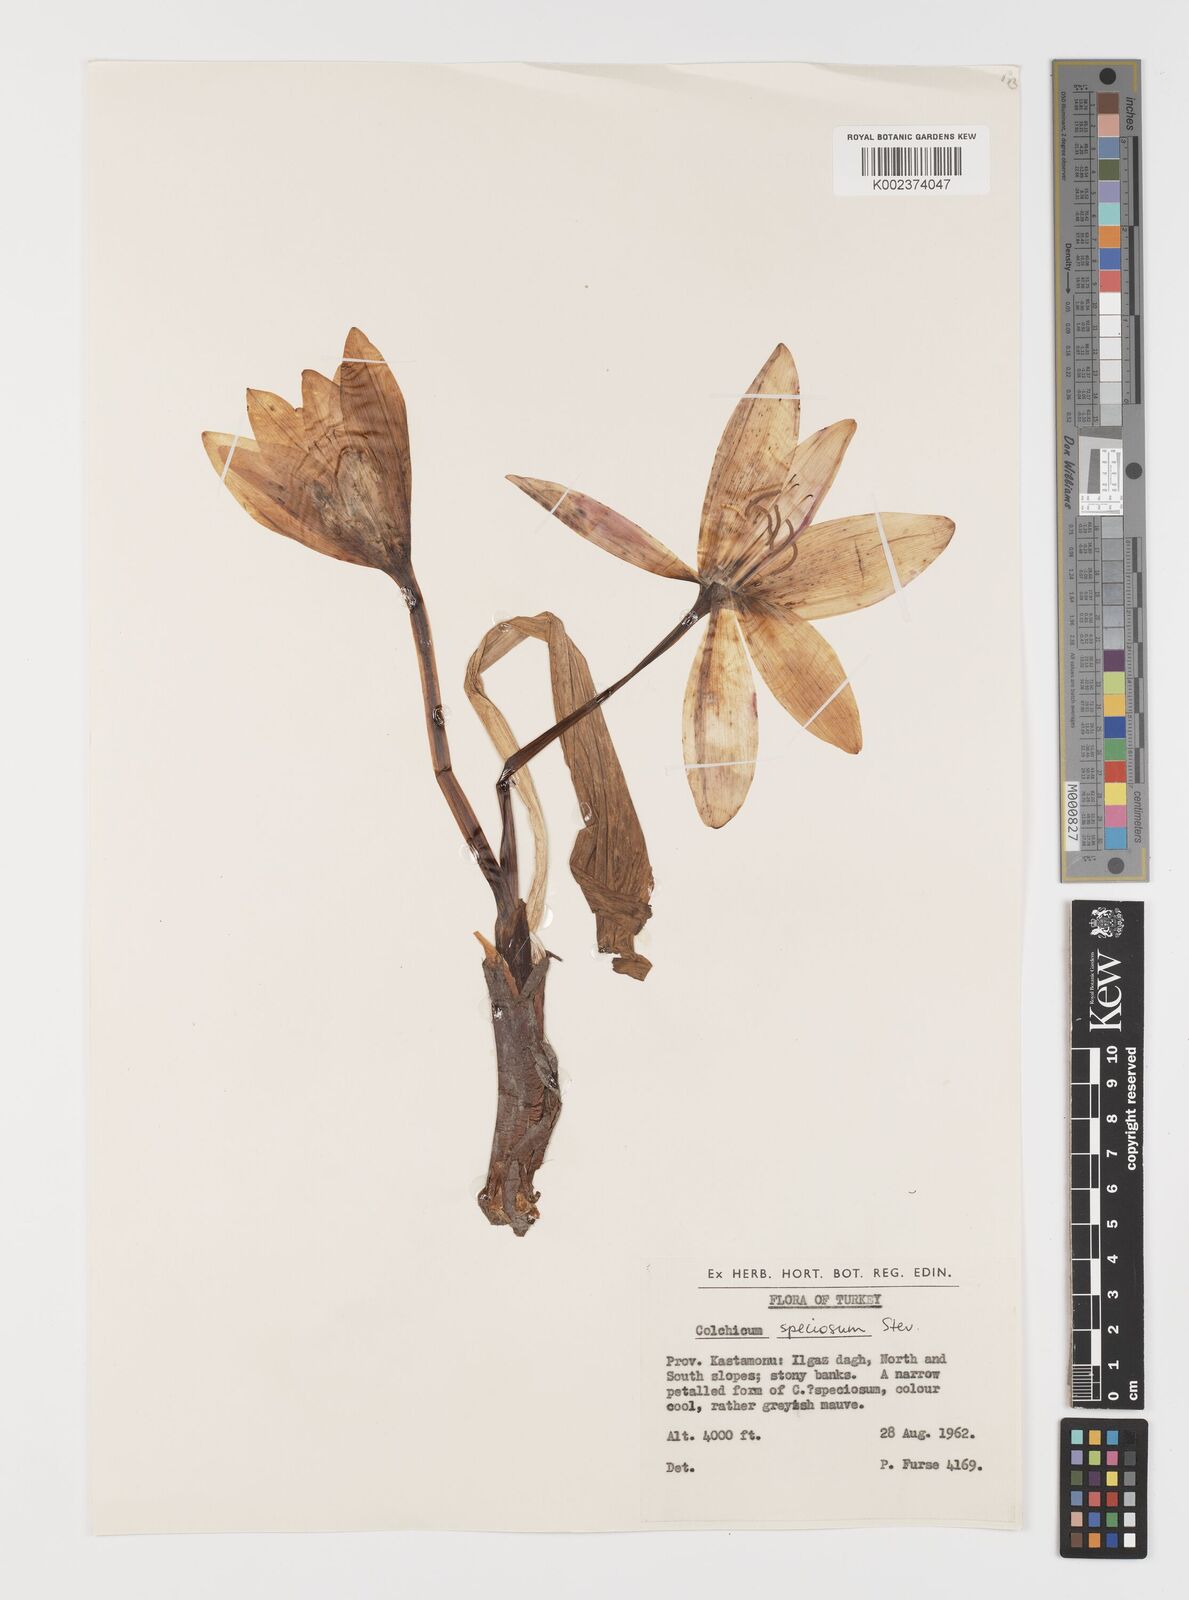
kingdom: Plantae
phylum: Tracheophyta
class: Liliopsida
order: Liliales
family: Colchicaceae
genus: Colchicum
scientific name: Colchicum speciosum
